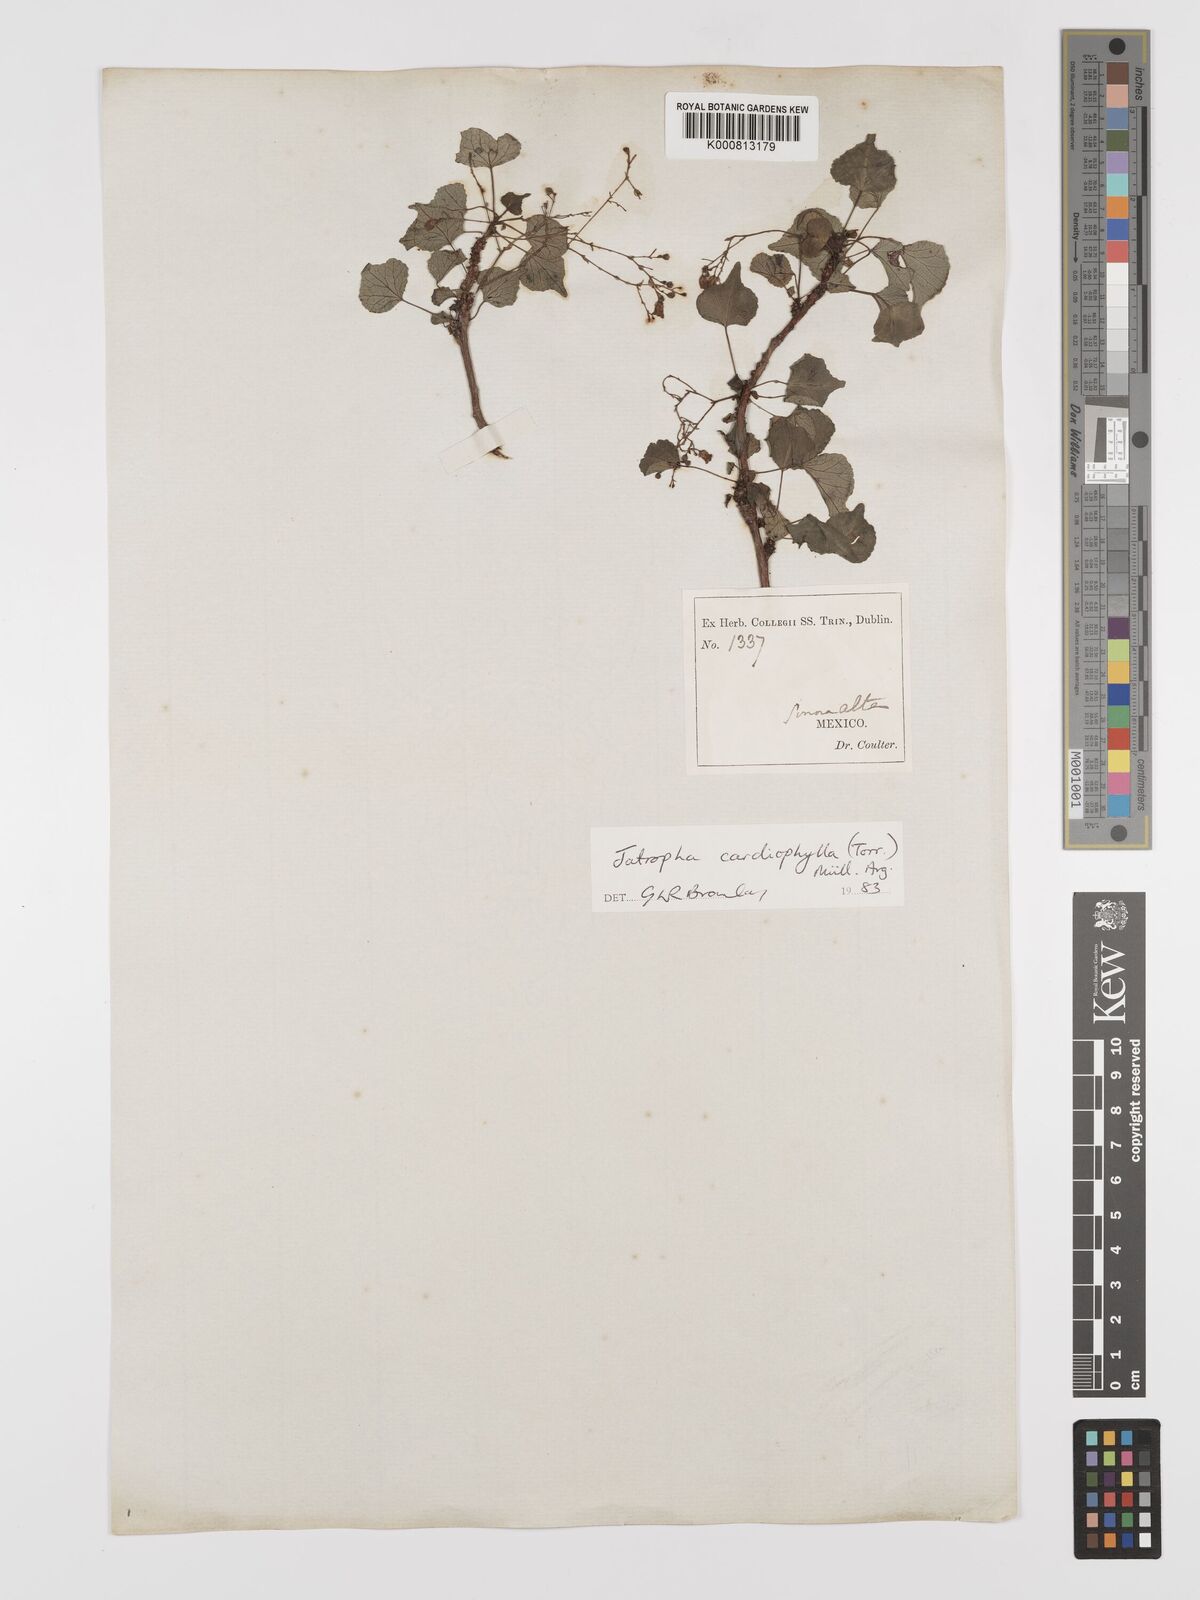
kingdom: Plantae
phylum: Tracheophyta
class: Magnoliopsida
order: Malpighiales
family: Euphorbiaceae
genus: Jatropha
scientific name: Jatropha
